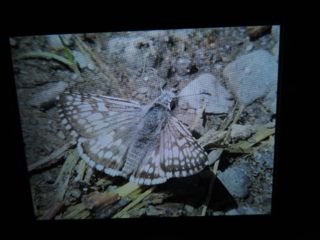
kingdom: Animalia
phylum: Arthropoda
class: Insecta
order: Lepidoptera
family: Hesperiidae
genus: Pyrgus
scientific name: Pyrgus communis
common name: Common Checkered-Skipper
